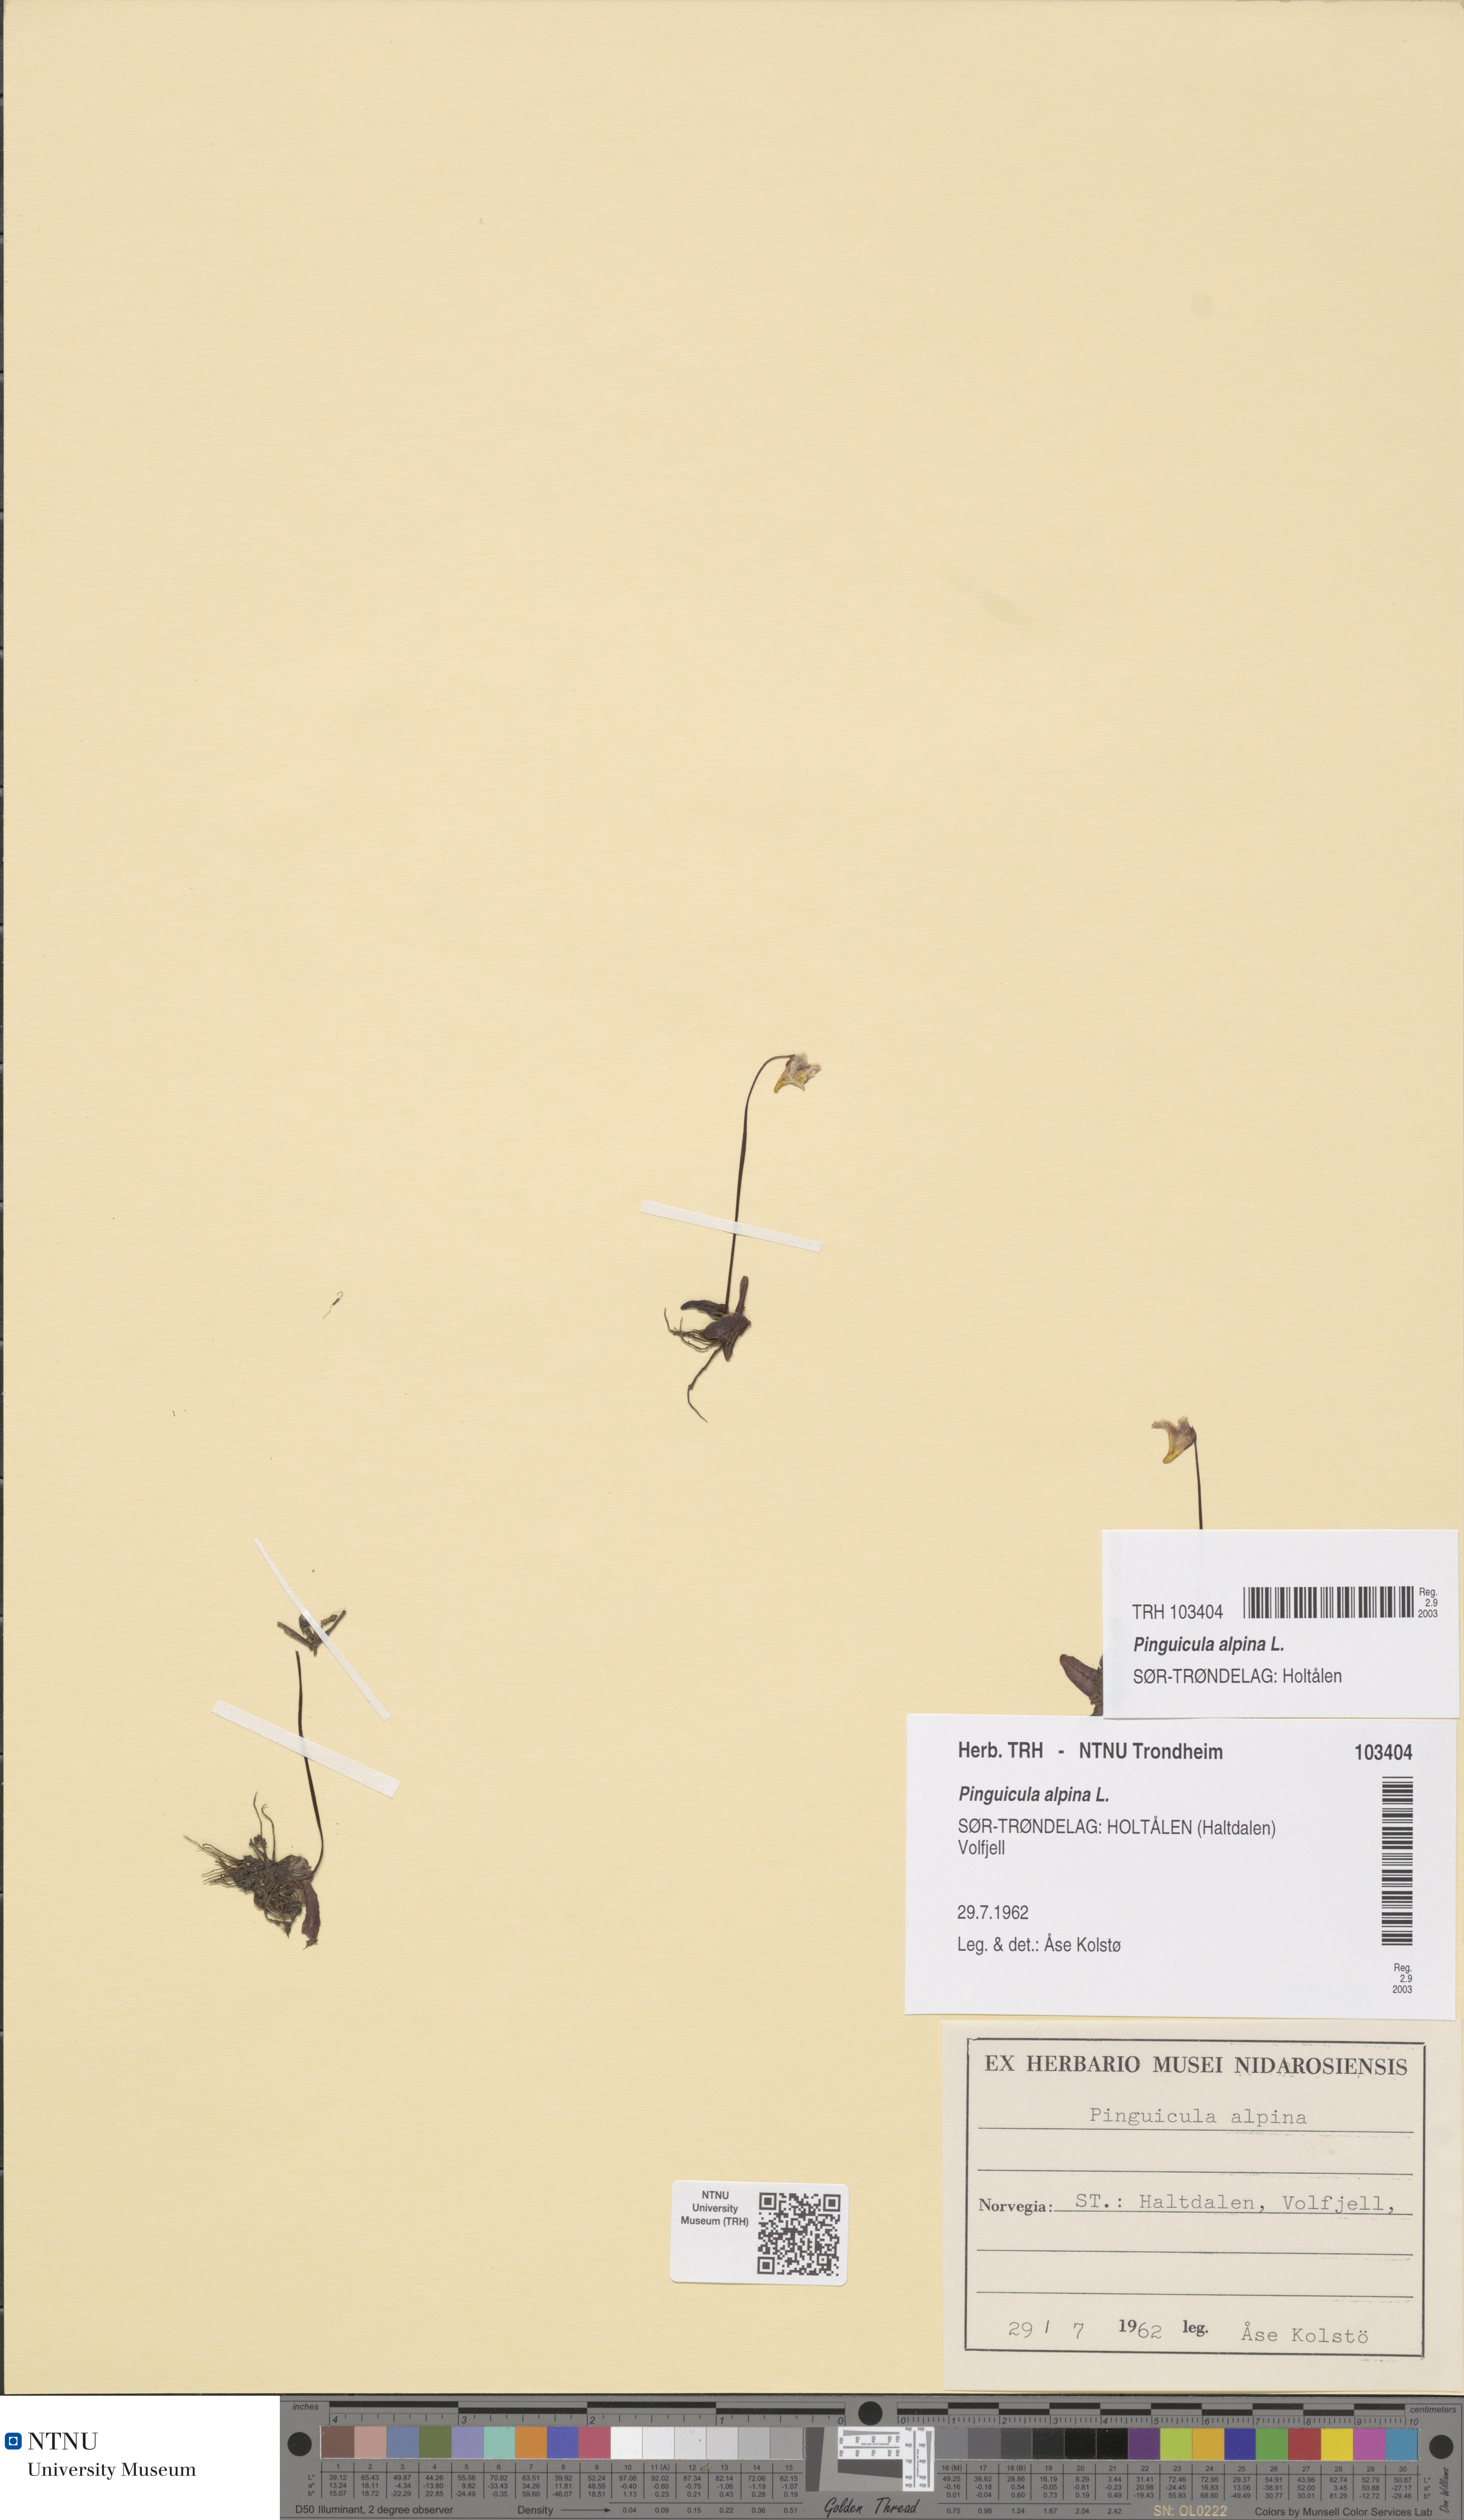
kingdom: Plantae
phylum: Tracheophyta
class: Magnoliopsida
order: Lamiales
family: Lentibulariaceae
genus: Pinguicula
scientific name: Pinguicula alpina
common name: Alpine butterwort
